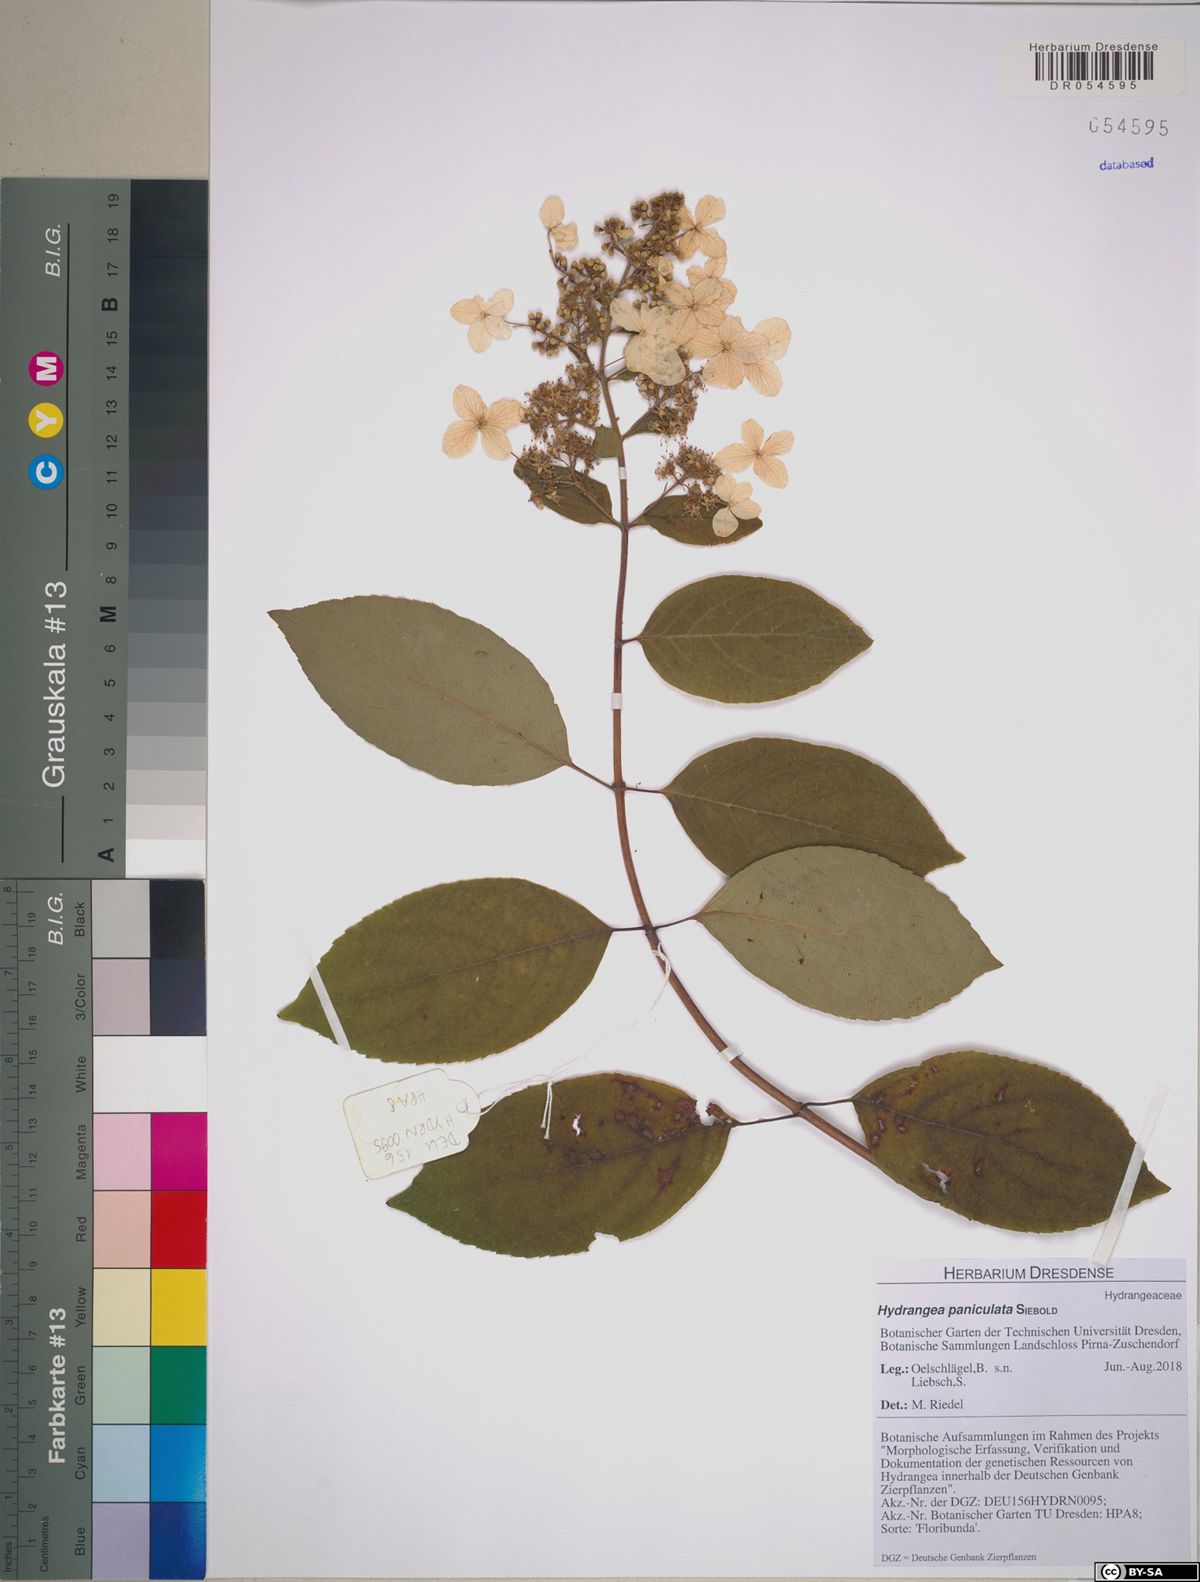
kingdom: Plantae
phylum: Tracheophyta
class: Magnoliopsida
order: Cornales
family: Hydrangeaceae
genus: Hydrangea
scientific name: Hydrangea paniculata
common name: Panicled hydrangea
